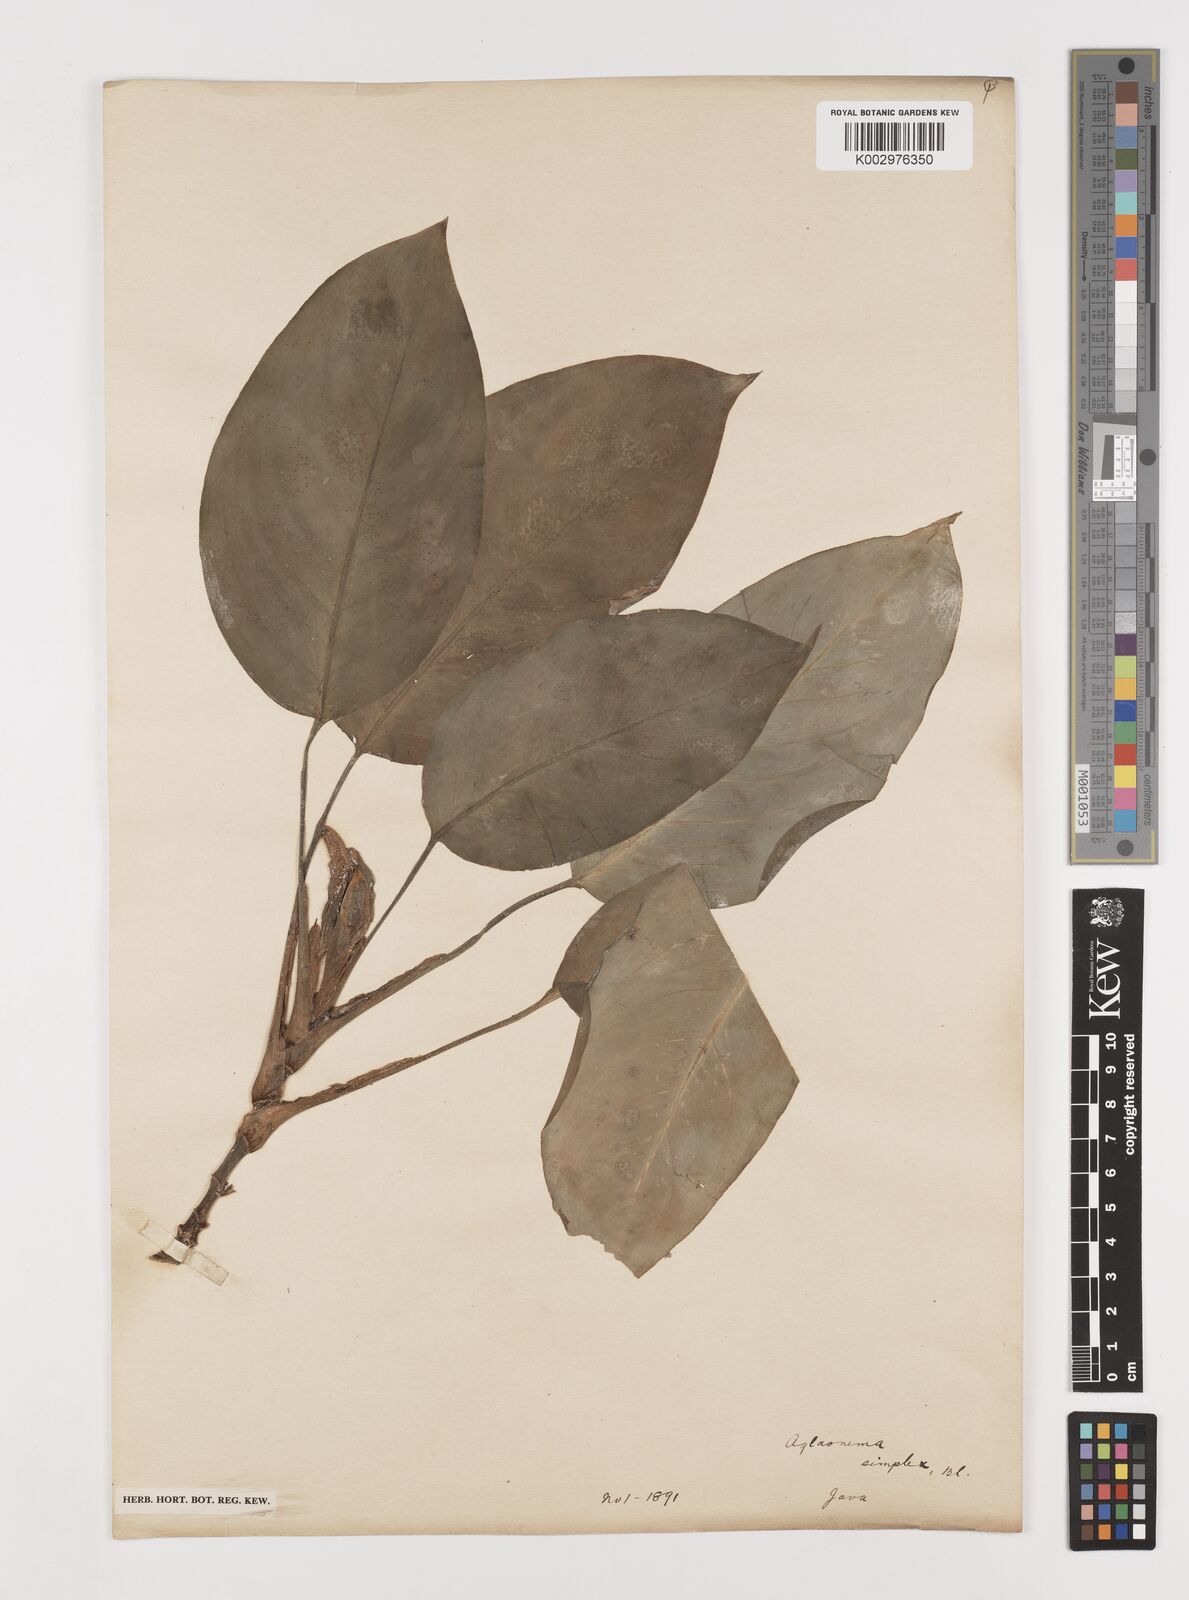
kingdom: Plantae
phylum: Tracheophyta
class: Liliopsida
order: Alismatales
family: Araceae
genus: Aglaonema
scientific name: Aglaonema simplex
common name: Malayan-sword
